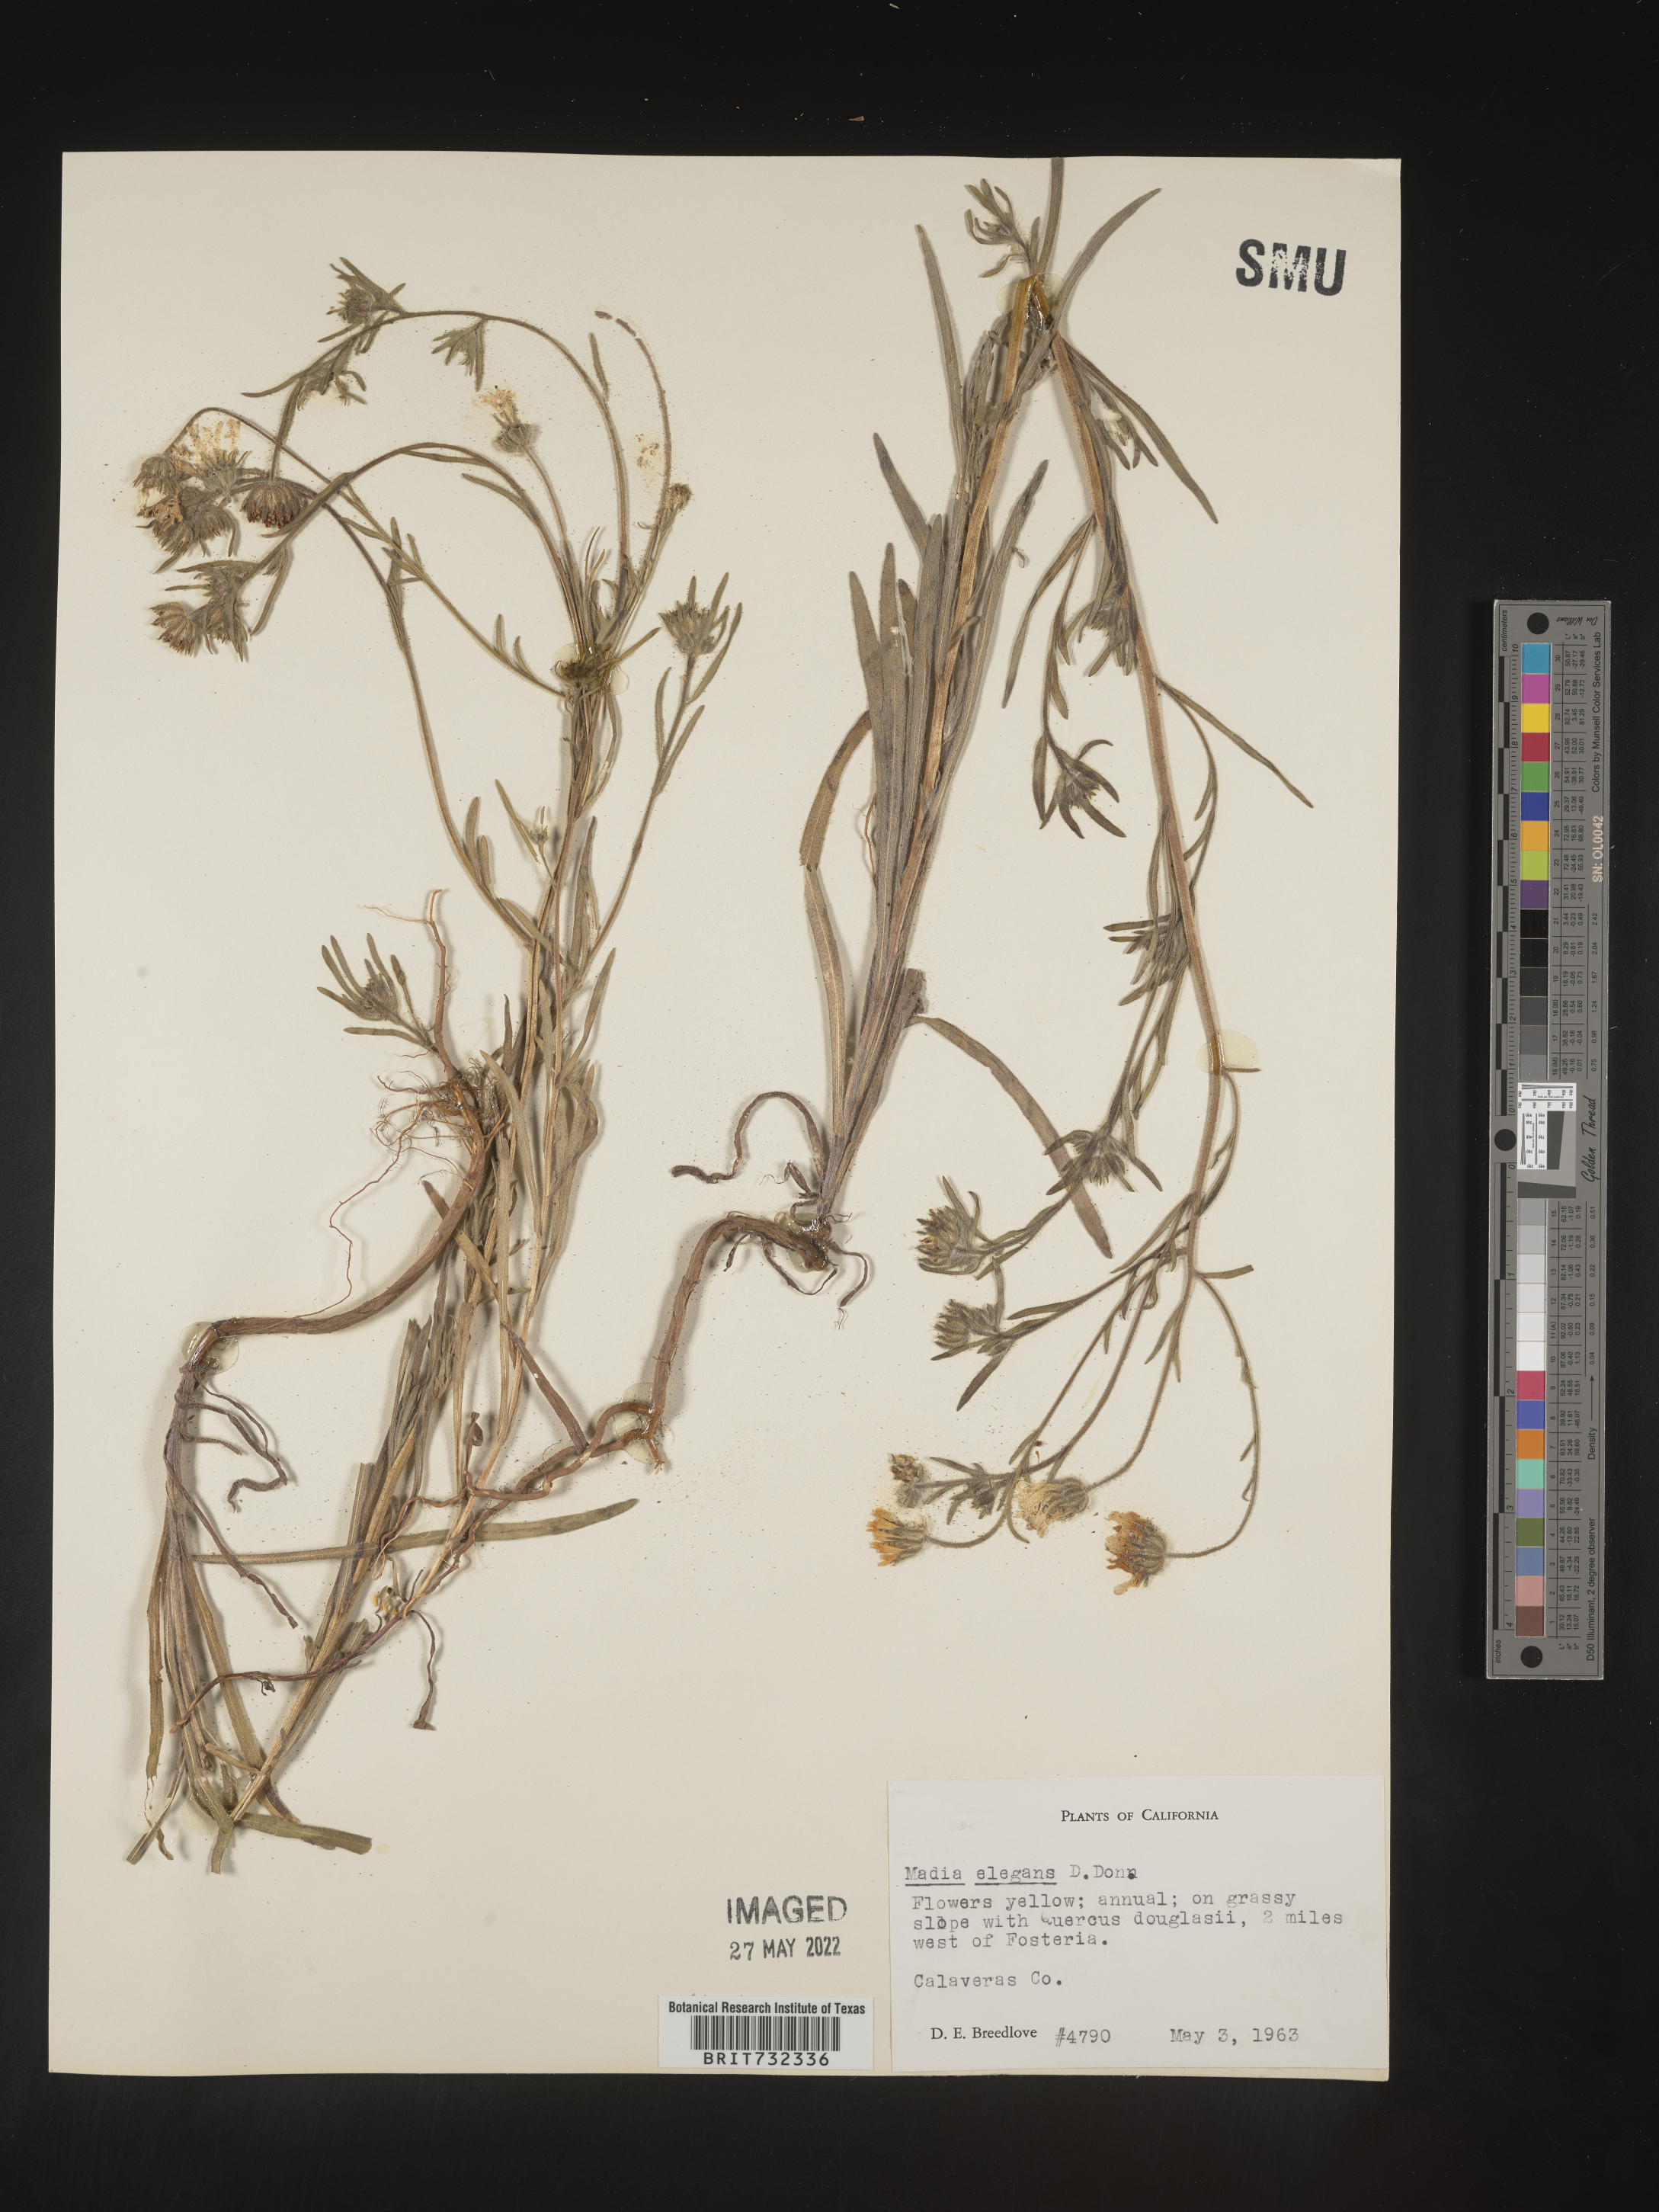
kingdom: Plantae
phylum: Tracheophyta
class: Magnoliopsida
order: Asterales
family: Asteraceae
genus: Madia
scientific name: Madia
